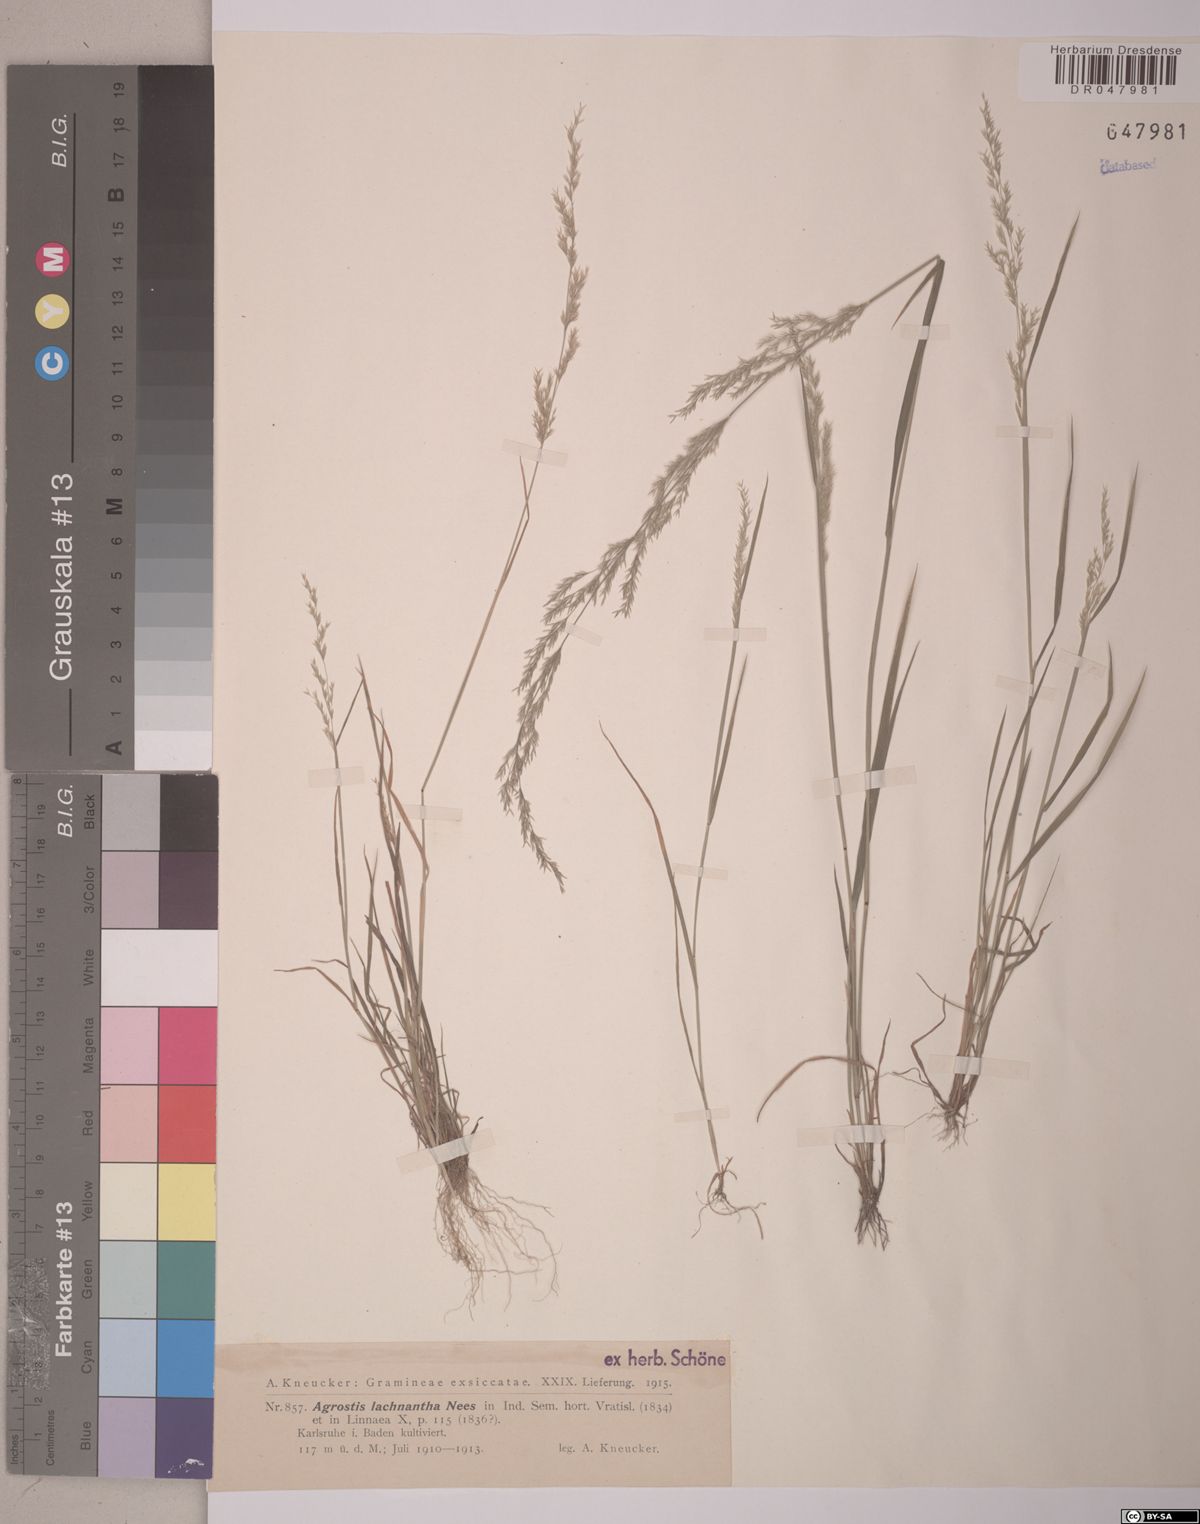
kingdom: Plantae
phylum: Tracheophyta
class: Liliopsida
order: Poales
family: Poaceae
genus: Lachnagrostis
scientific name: Lachnagrostis lachnantha
